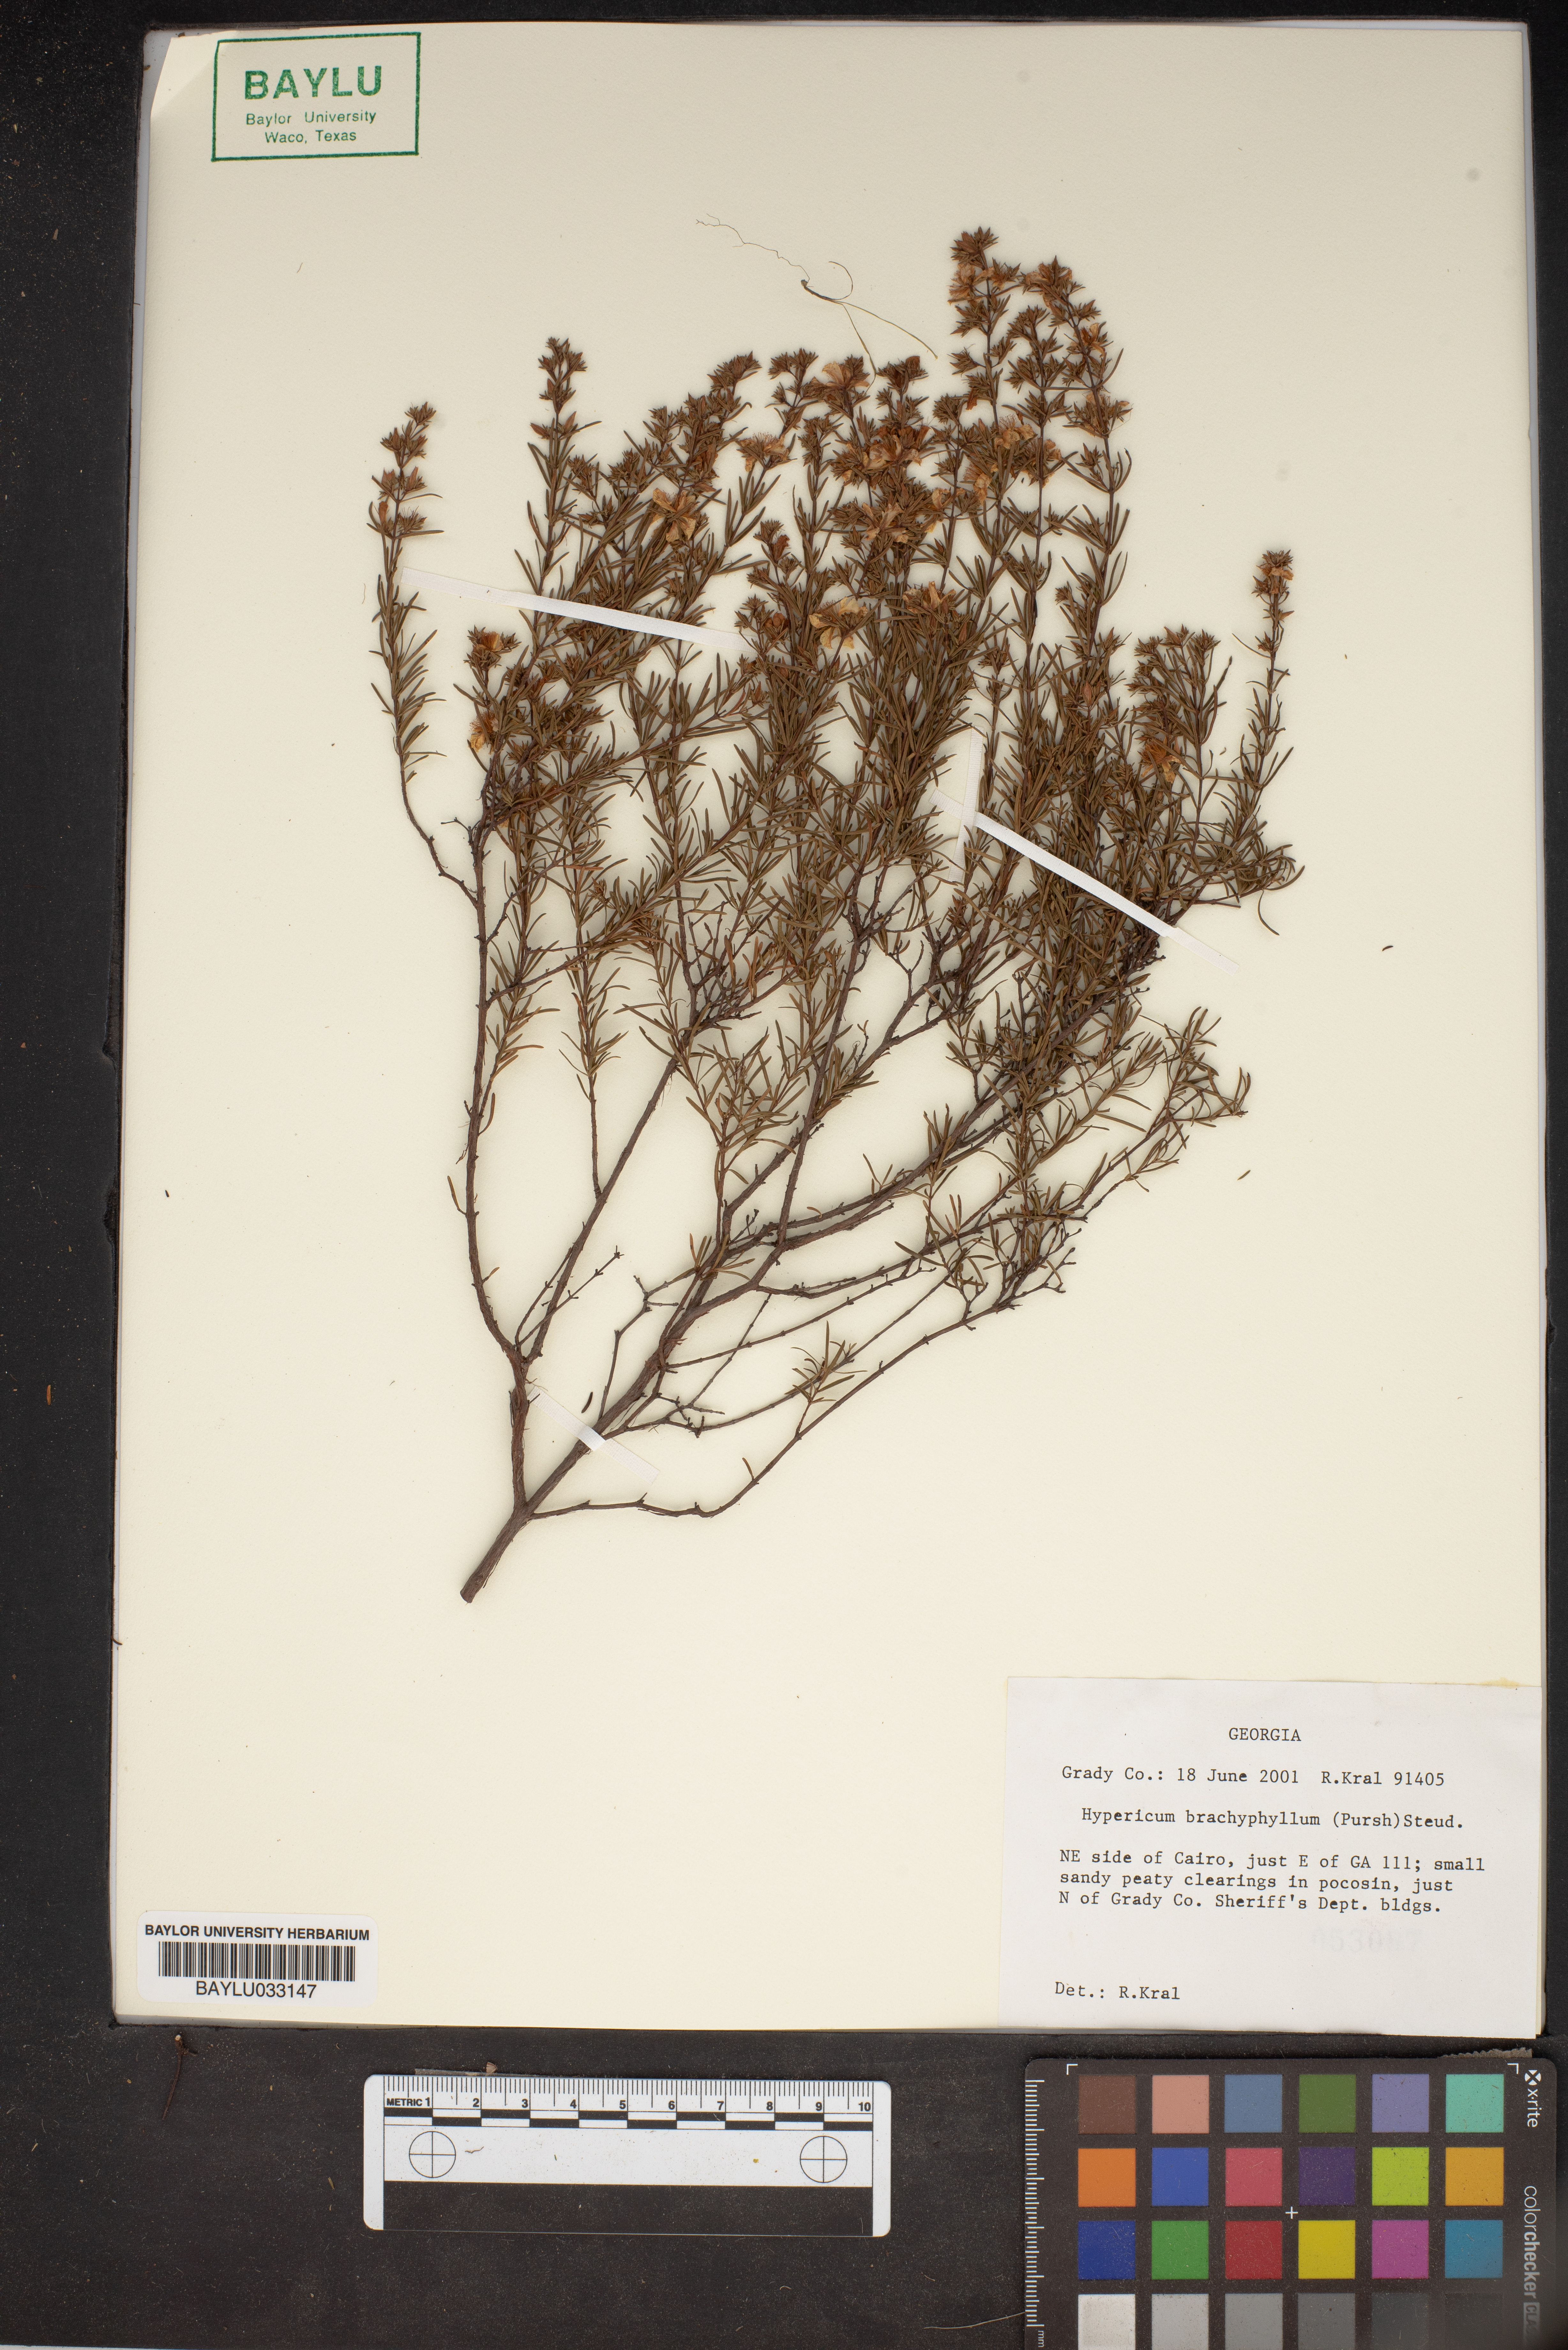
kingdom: Plantae
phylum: Tracheophyta
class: Magnoliopsida
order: Malpighiales
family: Hypericaceae
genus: Hypericum
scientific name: Hypericum brachyphyllum
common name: Coastal plain st. john's-wort
